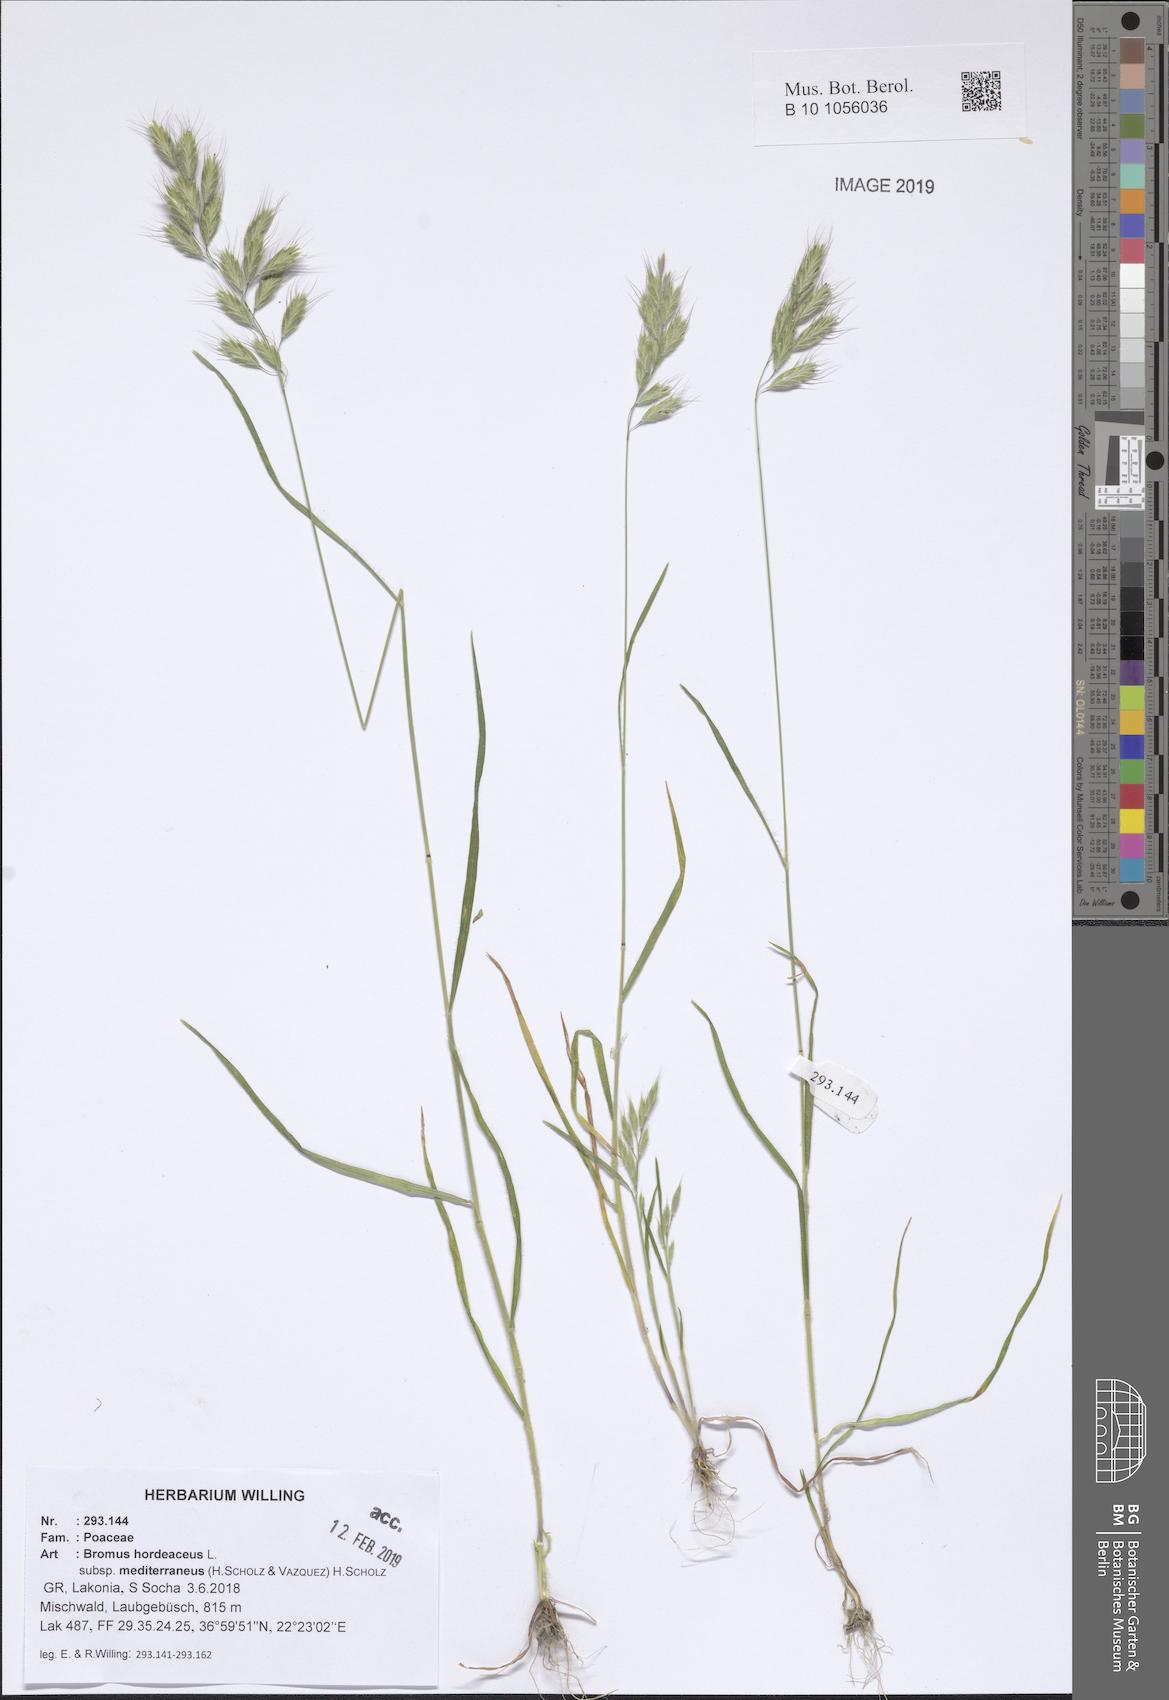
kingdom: Plantae
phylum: Tracheophyta
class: Liliopsida
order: Poales
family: Poaceae
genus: Bromus
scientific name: Bromus hordeaceus
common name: Soft brome
